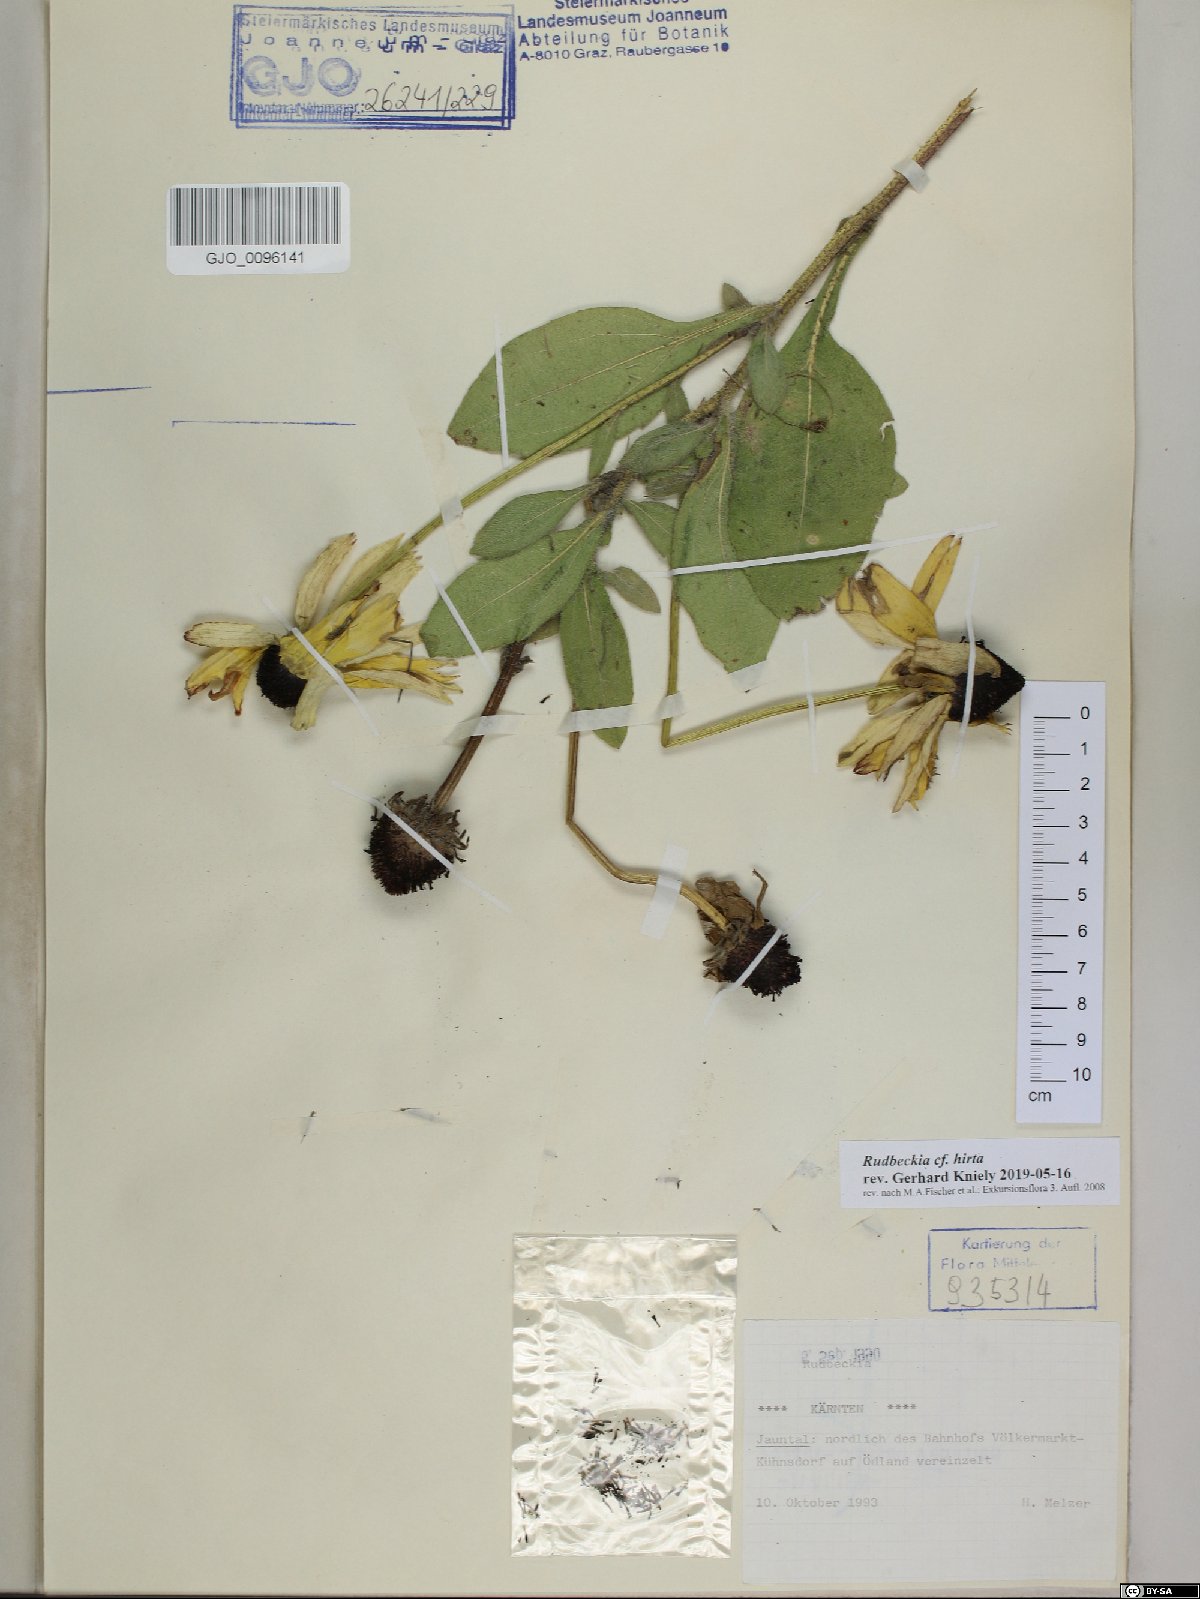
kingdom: Plantae
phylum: Tracheophyta
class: Magnoliopsida
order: Asterales
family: Asteraceae
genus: Rudbeckia
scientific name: Rudbeckia hirta
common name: Black-eyed-susan
